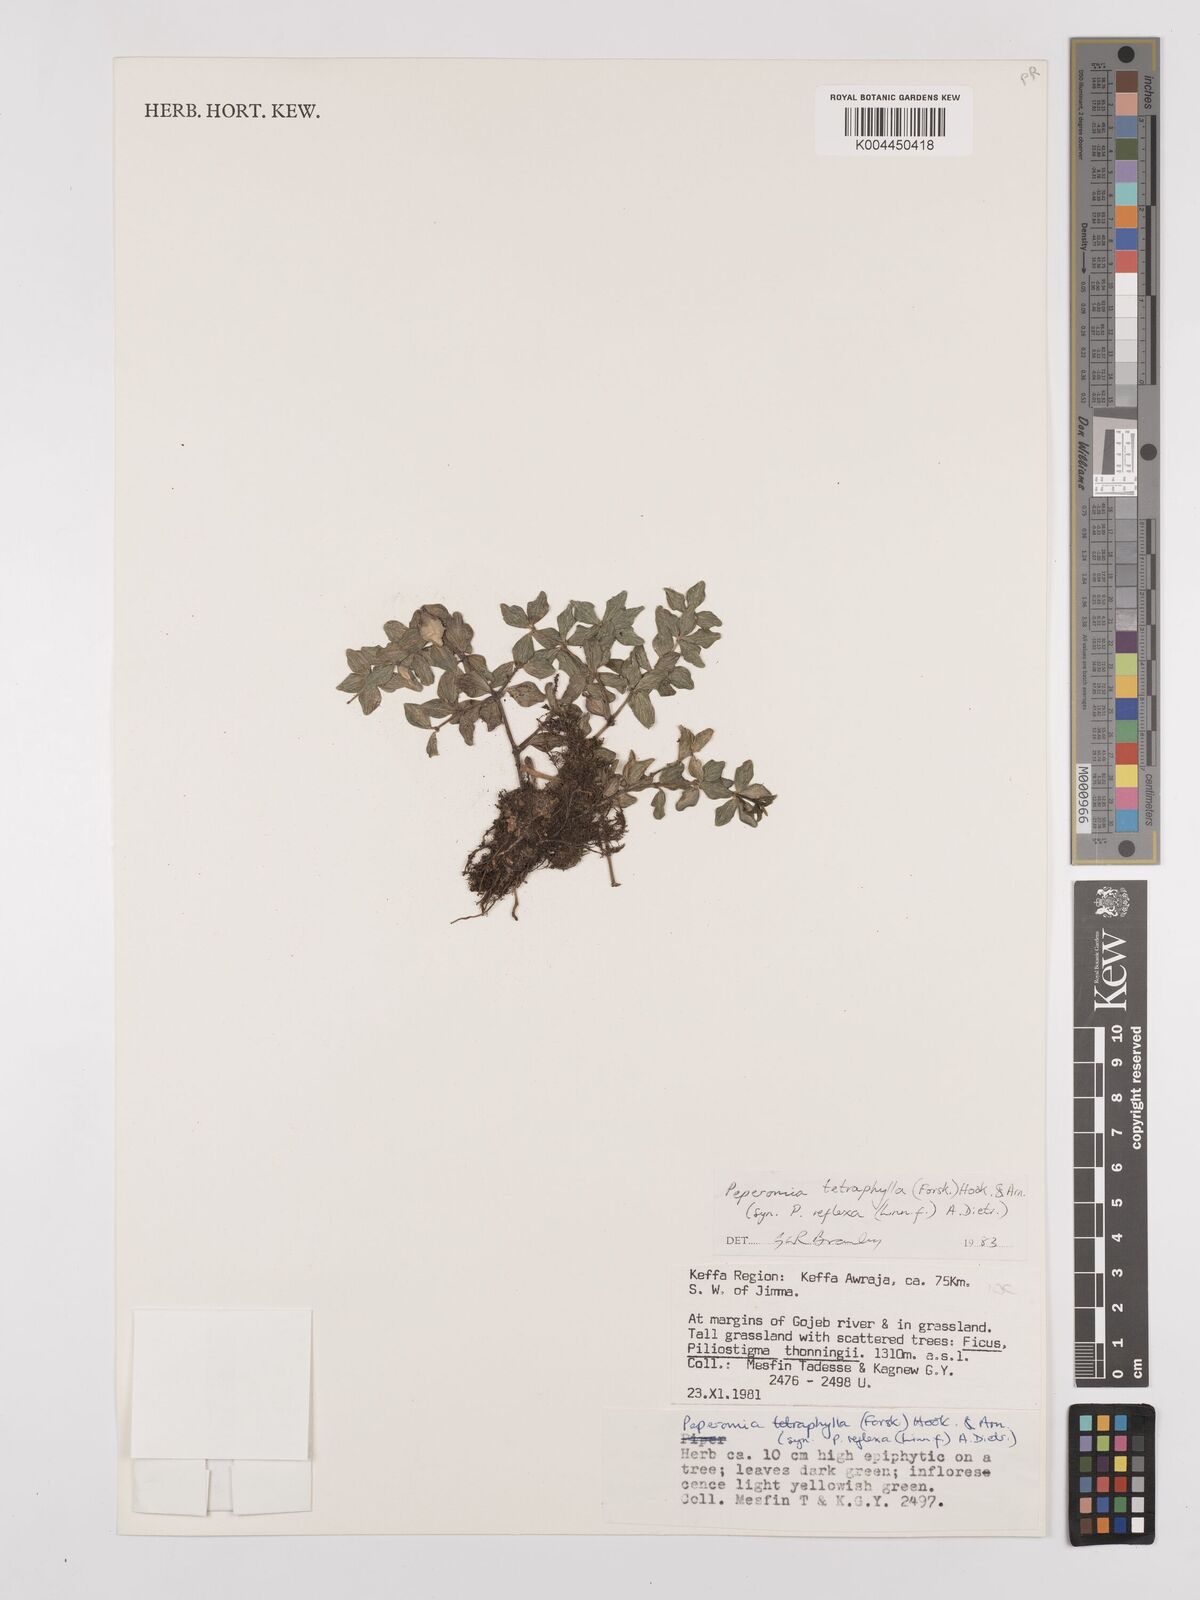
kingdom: Plantae
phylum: Tracheophyta
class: Magnoliopsida
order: Piperales
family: Piperaceae
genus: Peperomia
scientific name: Peperomia tetraphylla
